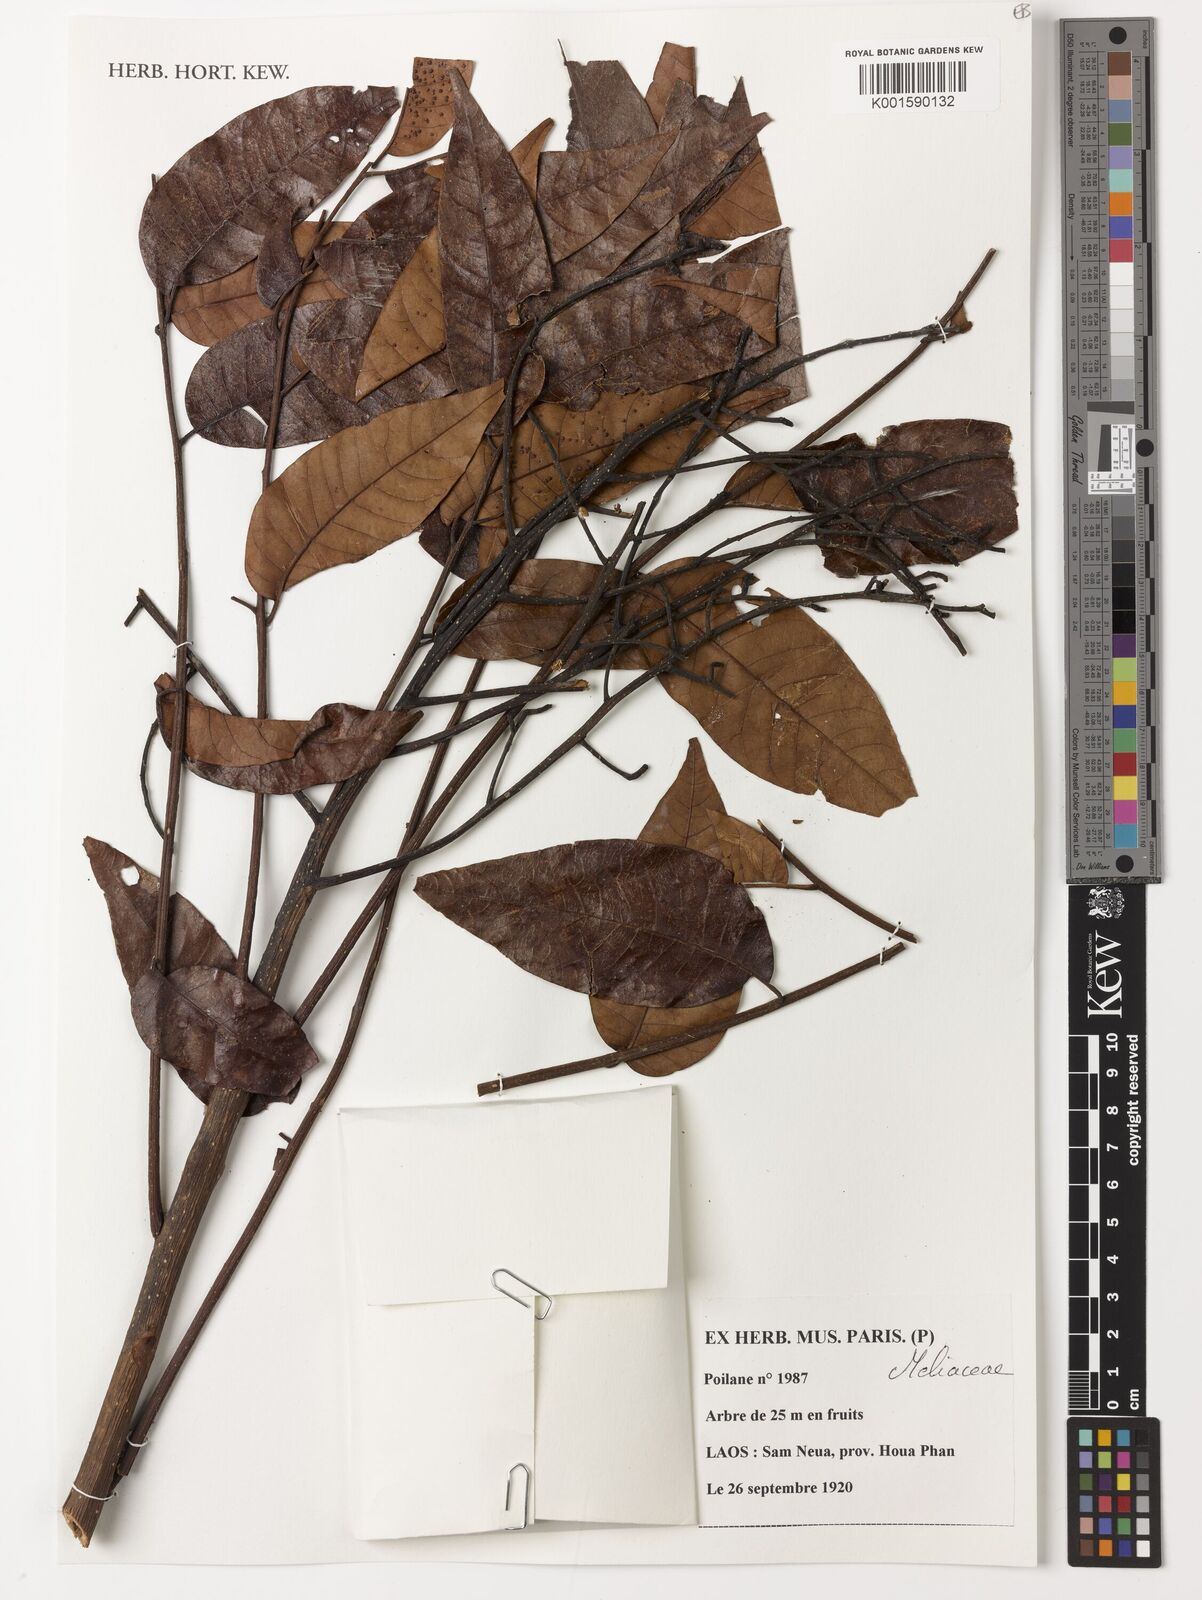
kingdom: Plantae
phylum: Tracheophyta
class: Magnoliopsida
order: Sapindales
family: Meliaceae
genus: Toona
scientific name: Toona sureni
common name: Red cedar
